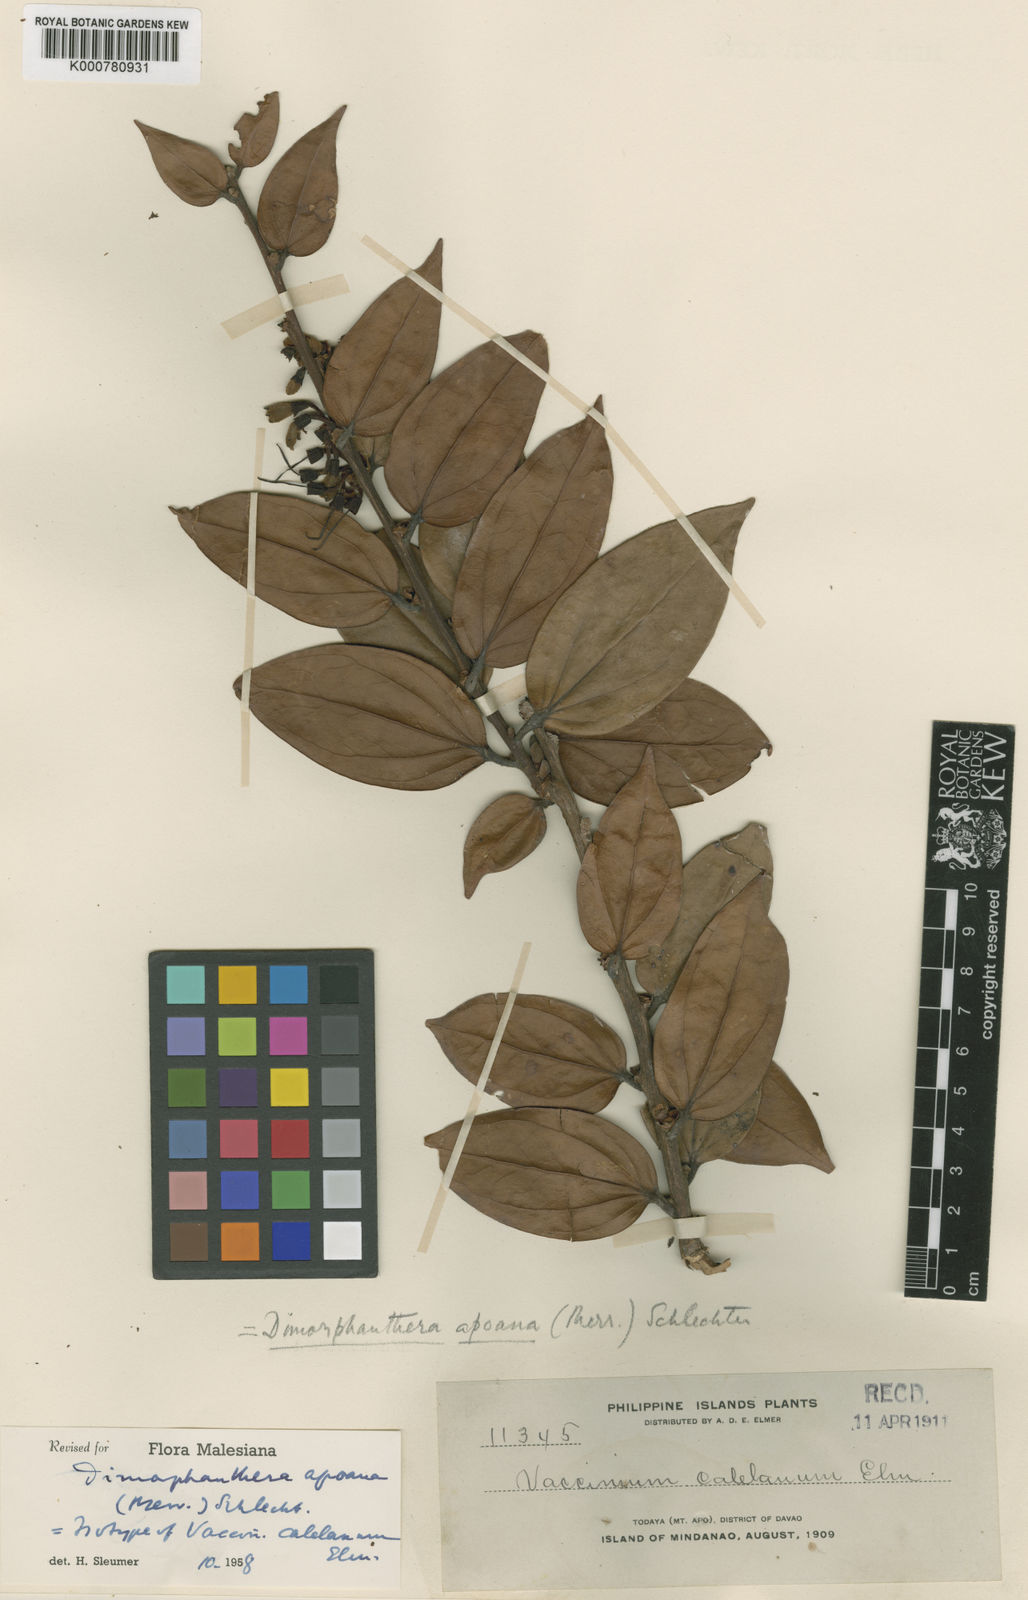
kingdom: Plantae
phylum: Tracheophyta
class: Magnoliopsida
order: Ericales
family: Ericaceae
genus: Dimorphanthera
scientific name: Dimorphanthera apoana
